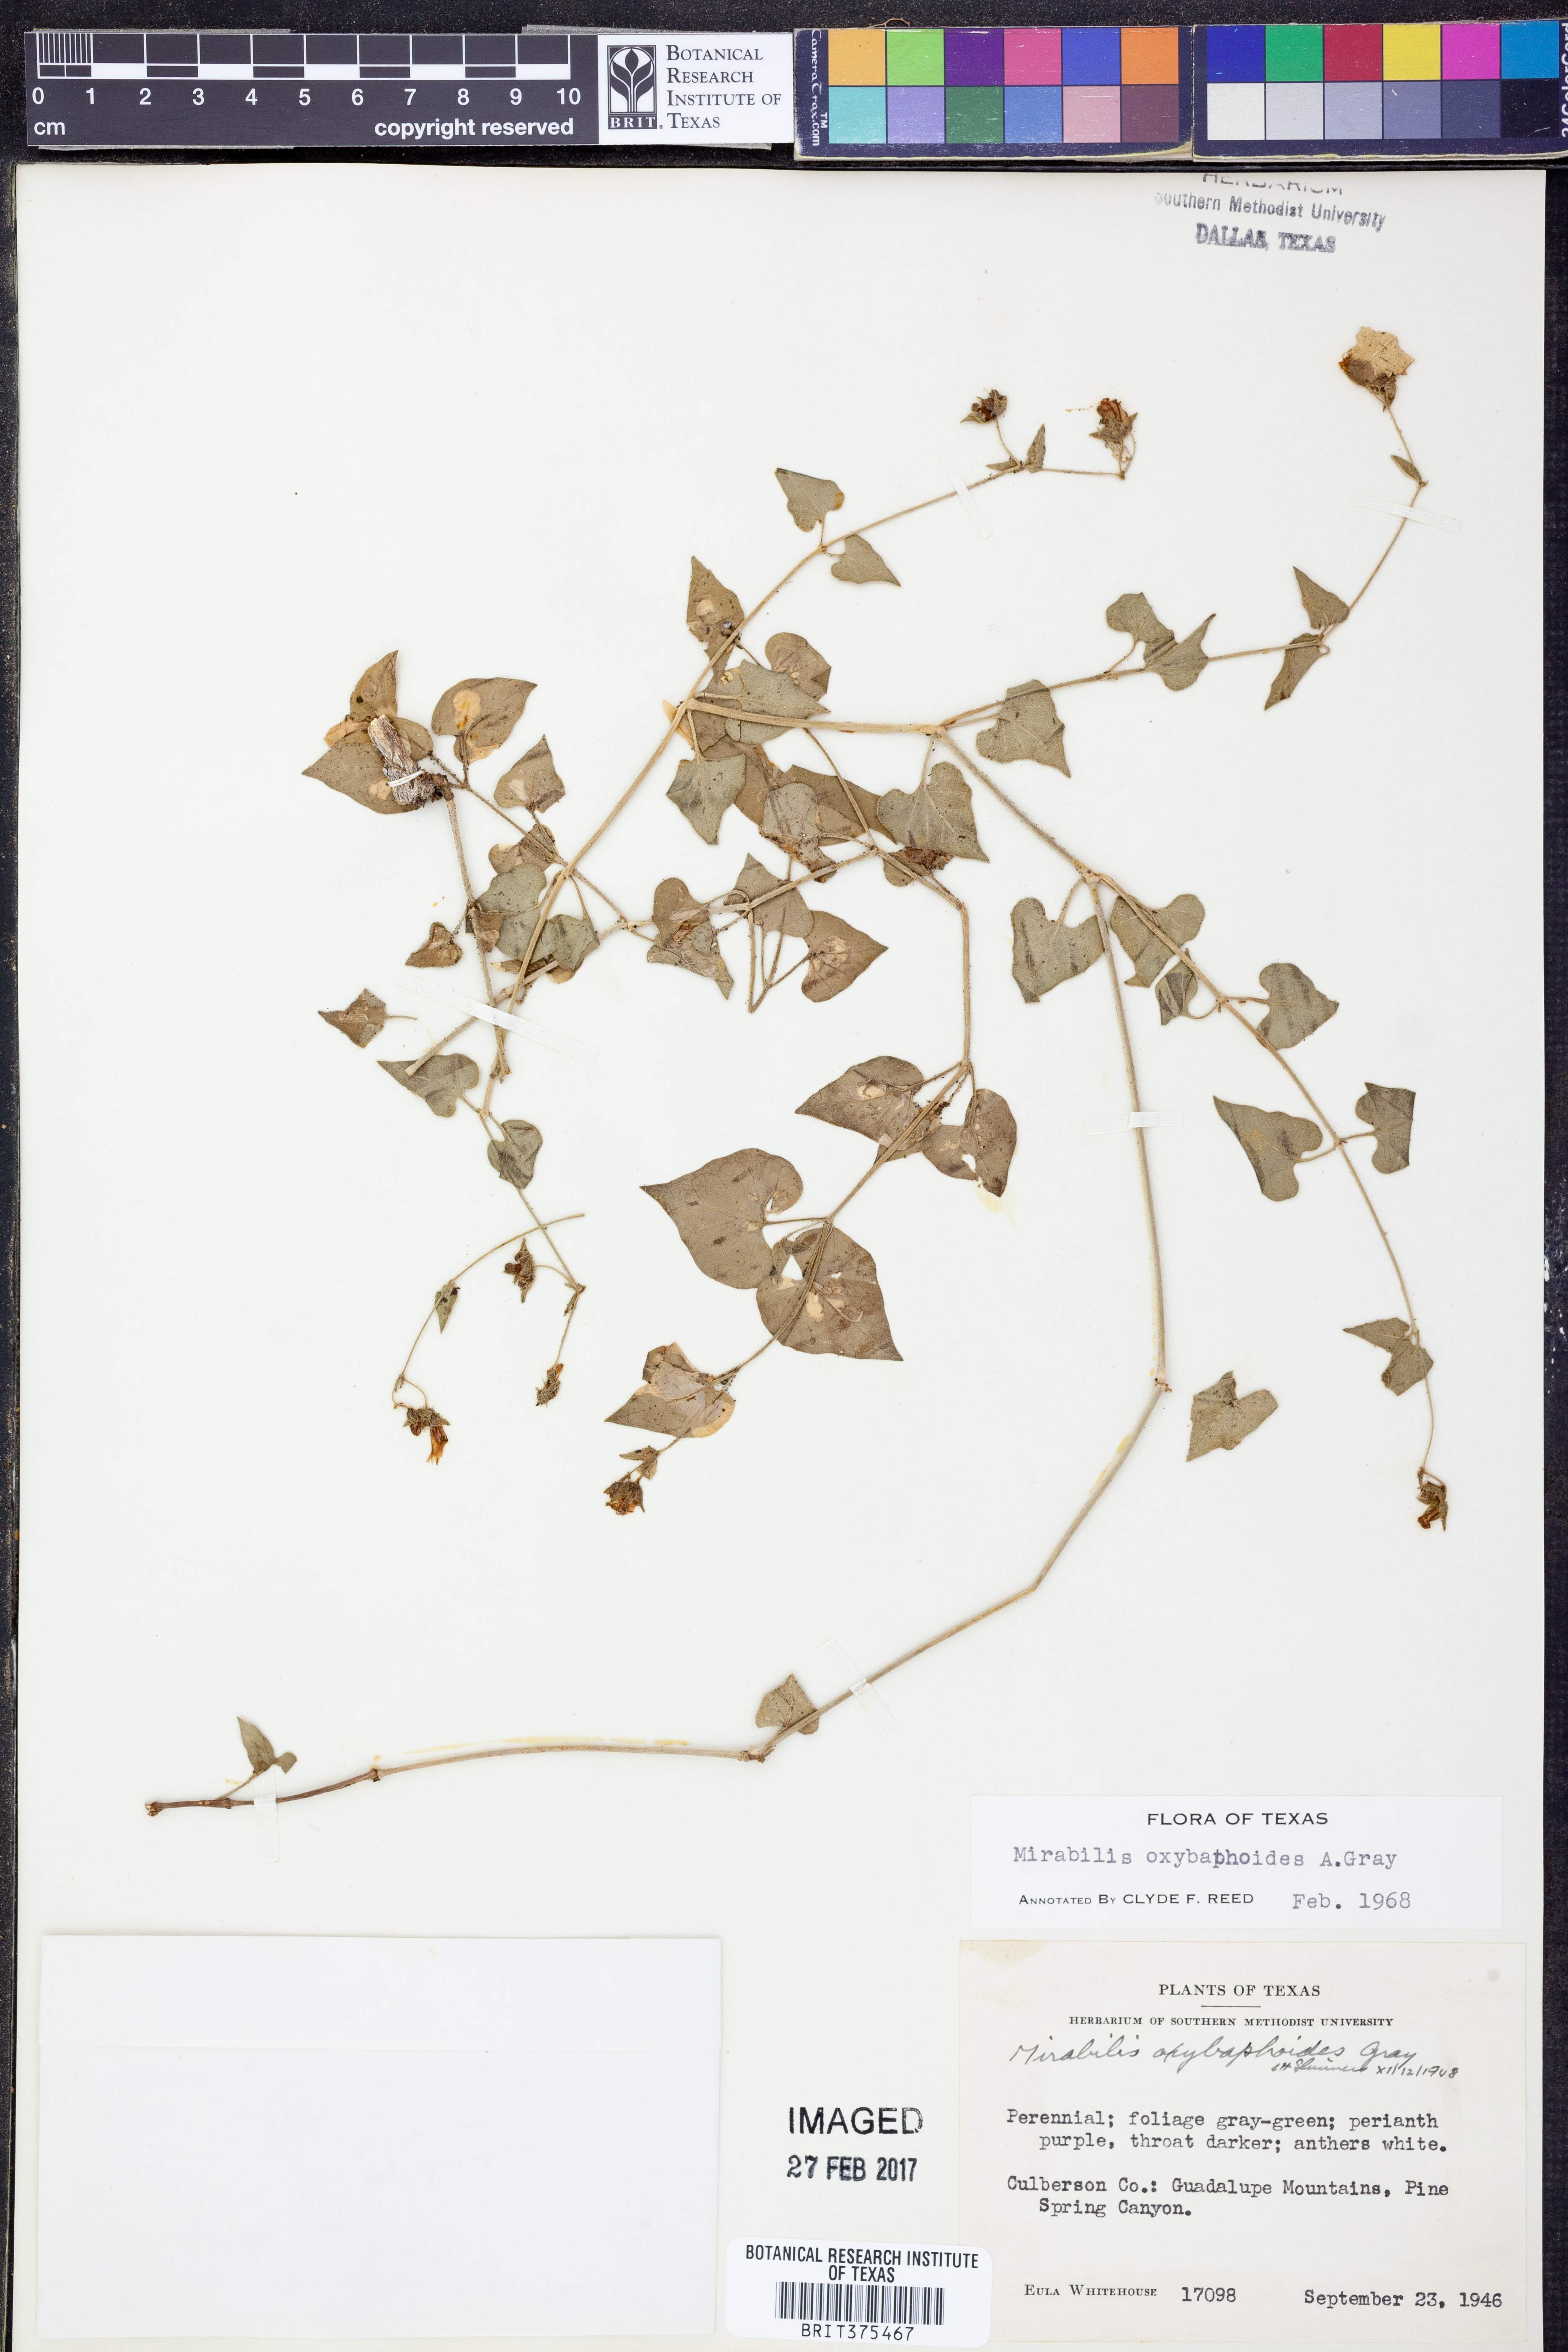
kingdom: Plantae
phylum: Tracheophyta
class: Magnoliopsida
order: Caryophyllales
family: Nyctaginaceae
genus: Mirabilis
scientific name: Mirabilis oxybaphoides
